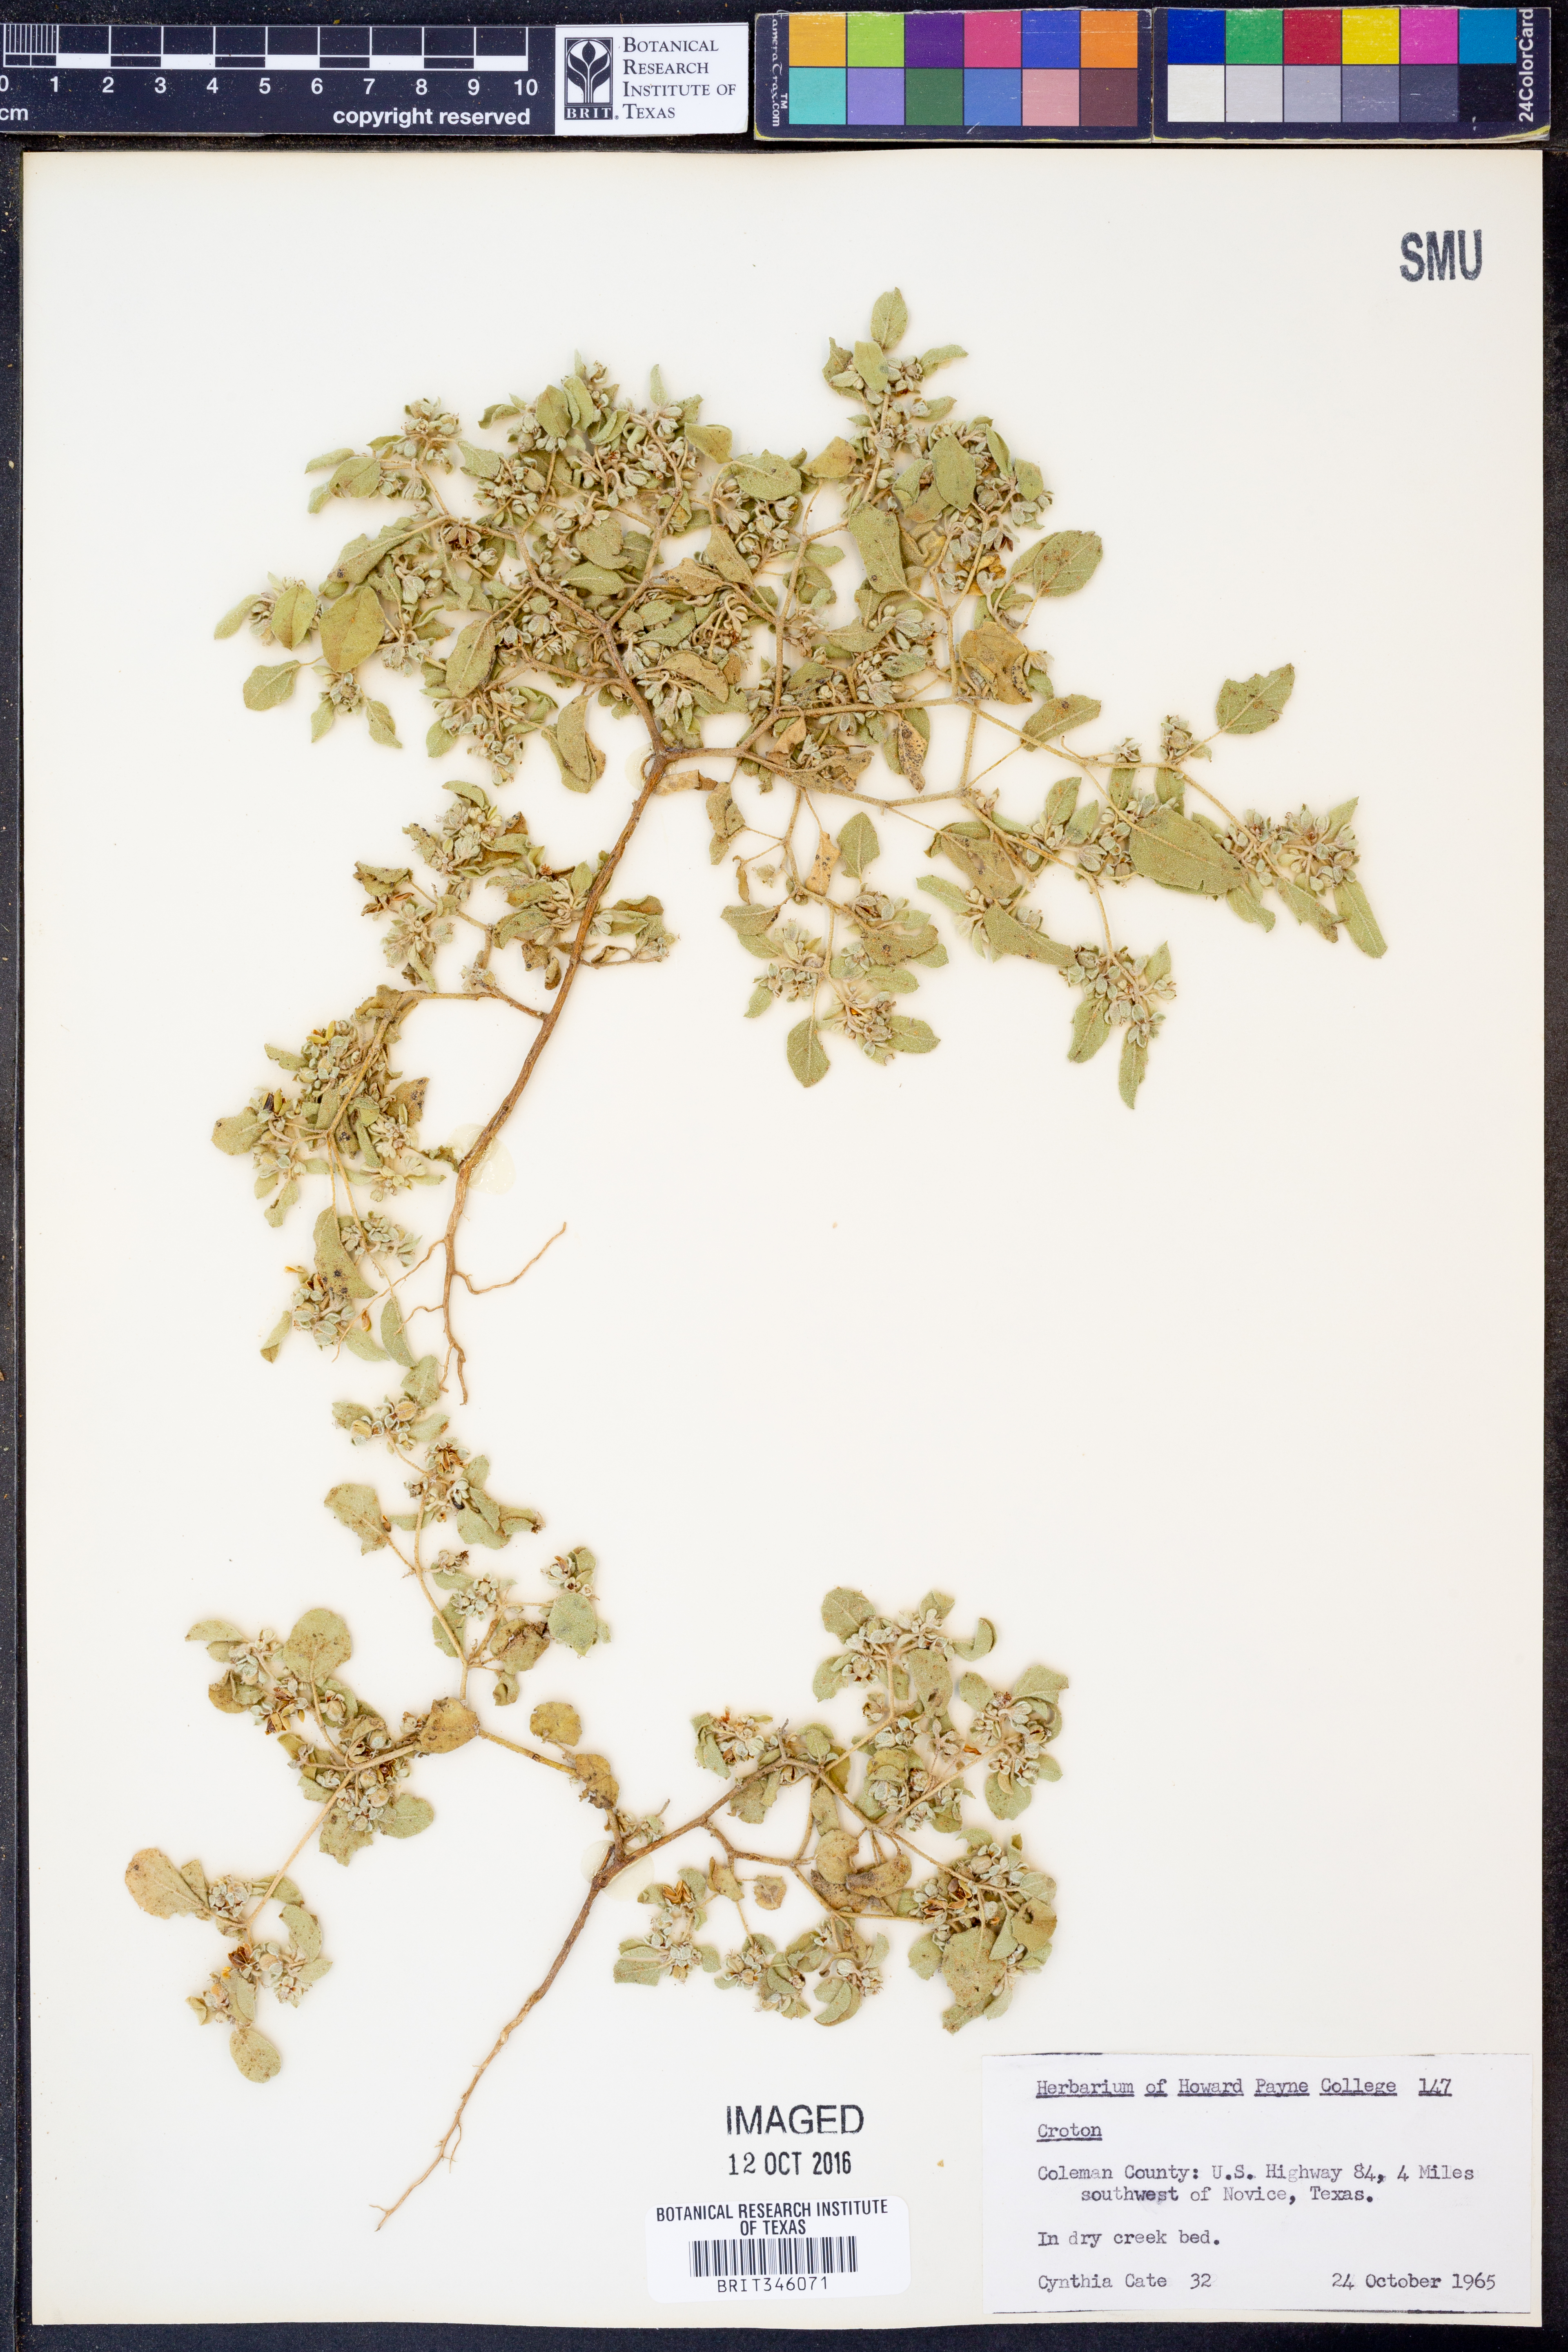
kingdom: Plantae
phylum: Tracheophyta
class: Magnoliopsida
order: Malpighiales
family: Euphorbiaceae
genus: Croton
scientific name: Croton
